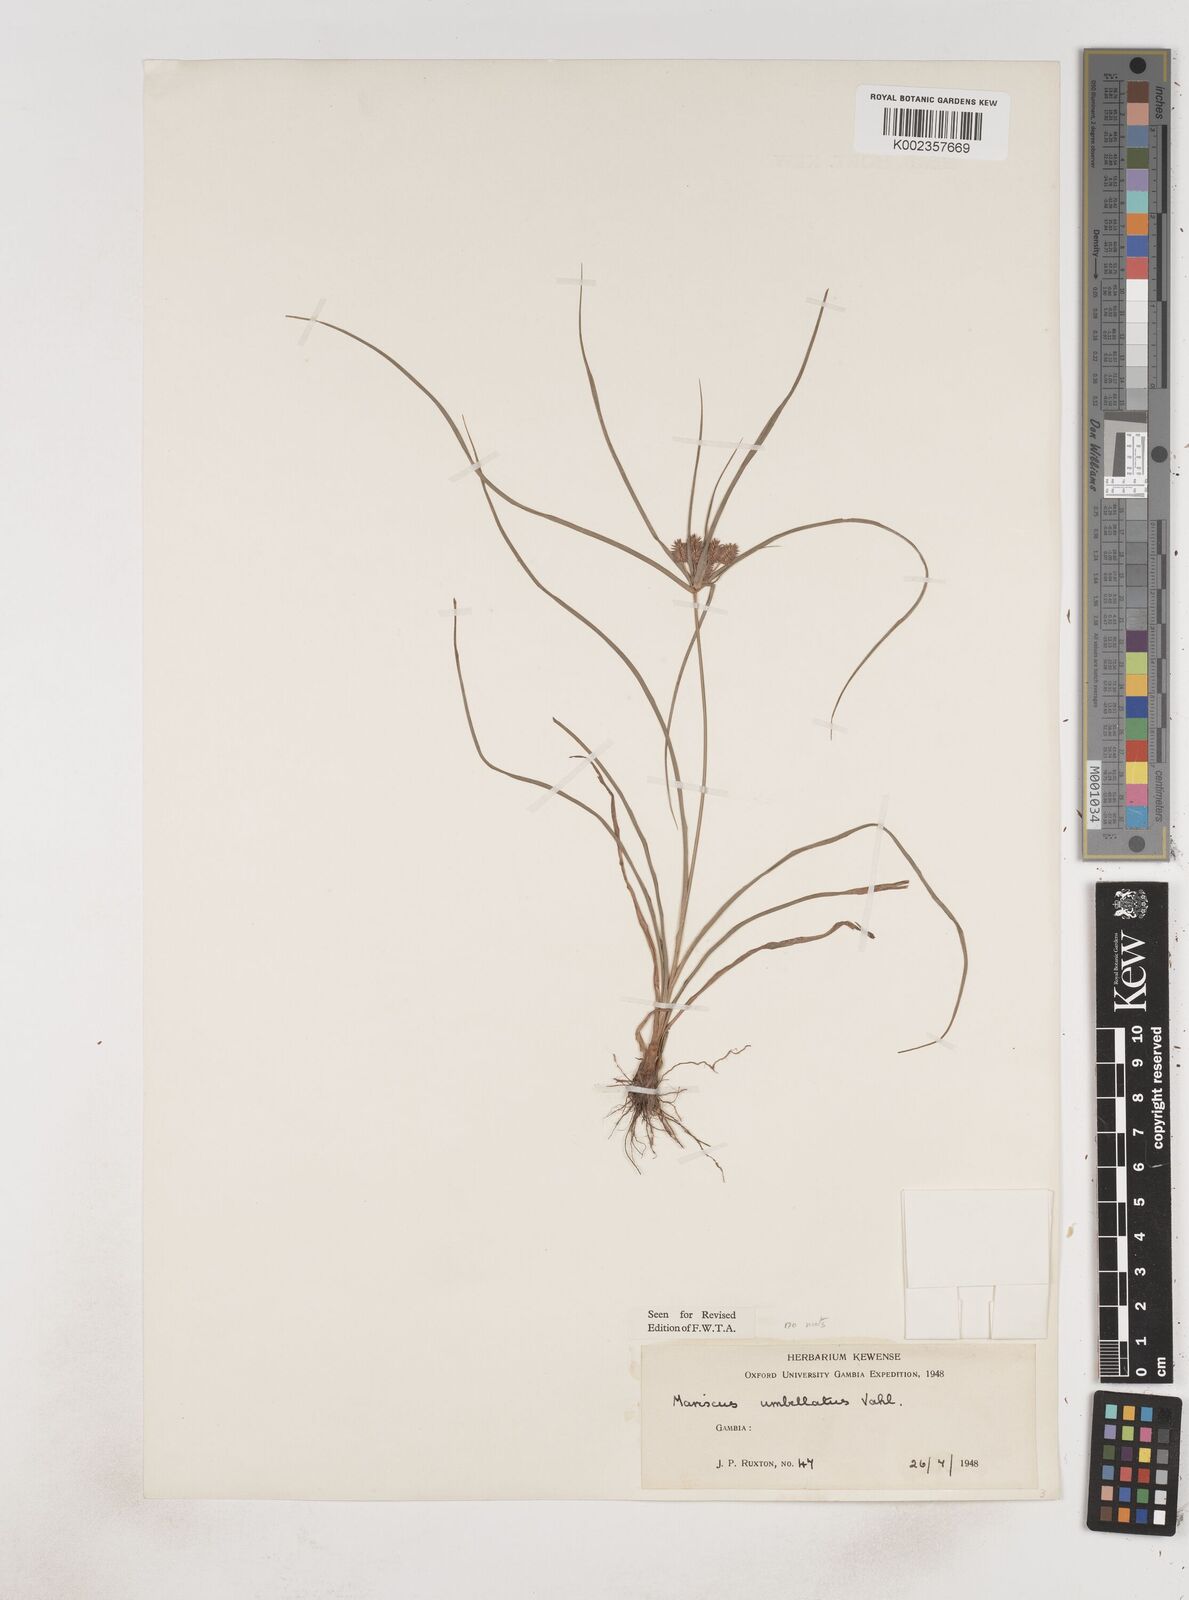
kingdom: Plantae
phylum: Tracheophyta
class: Liliopsida
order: Poales
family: Cyperaceae
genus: Cyperus
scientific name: Cyperus sublimis
